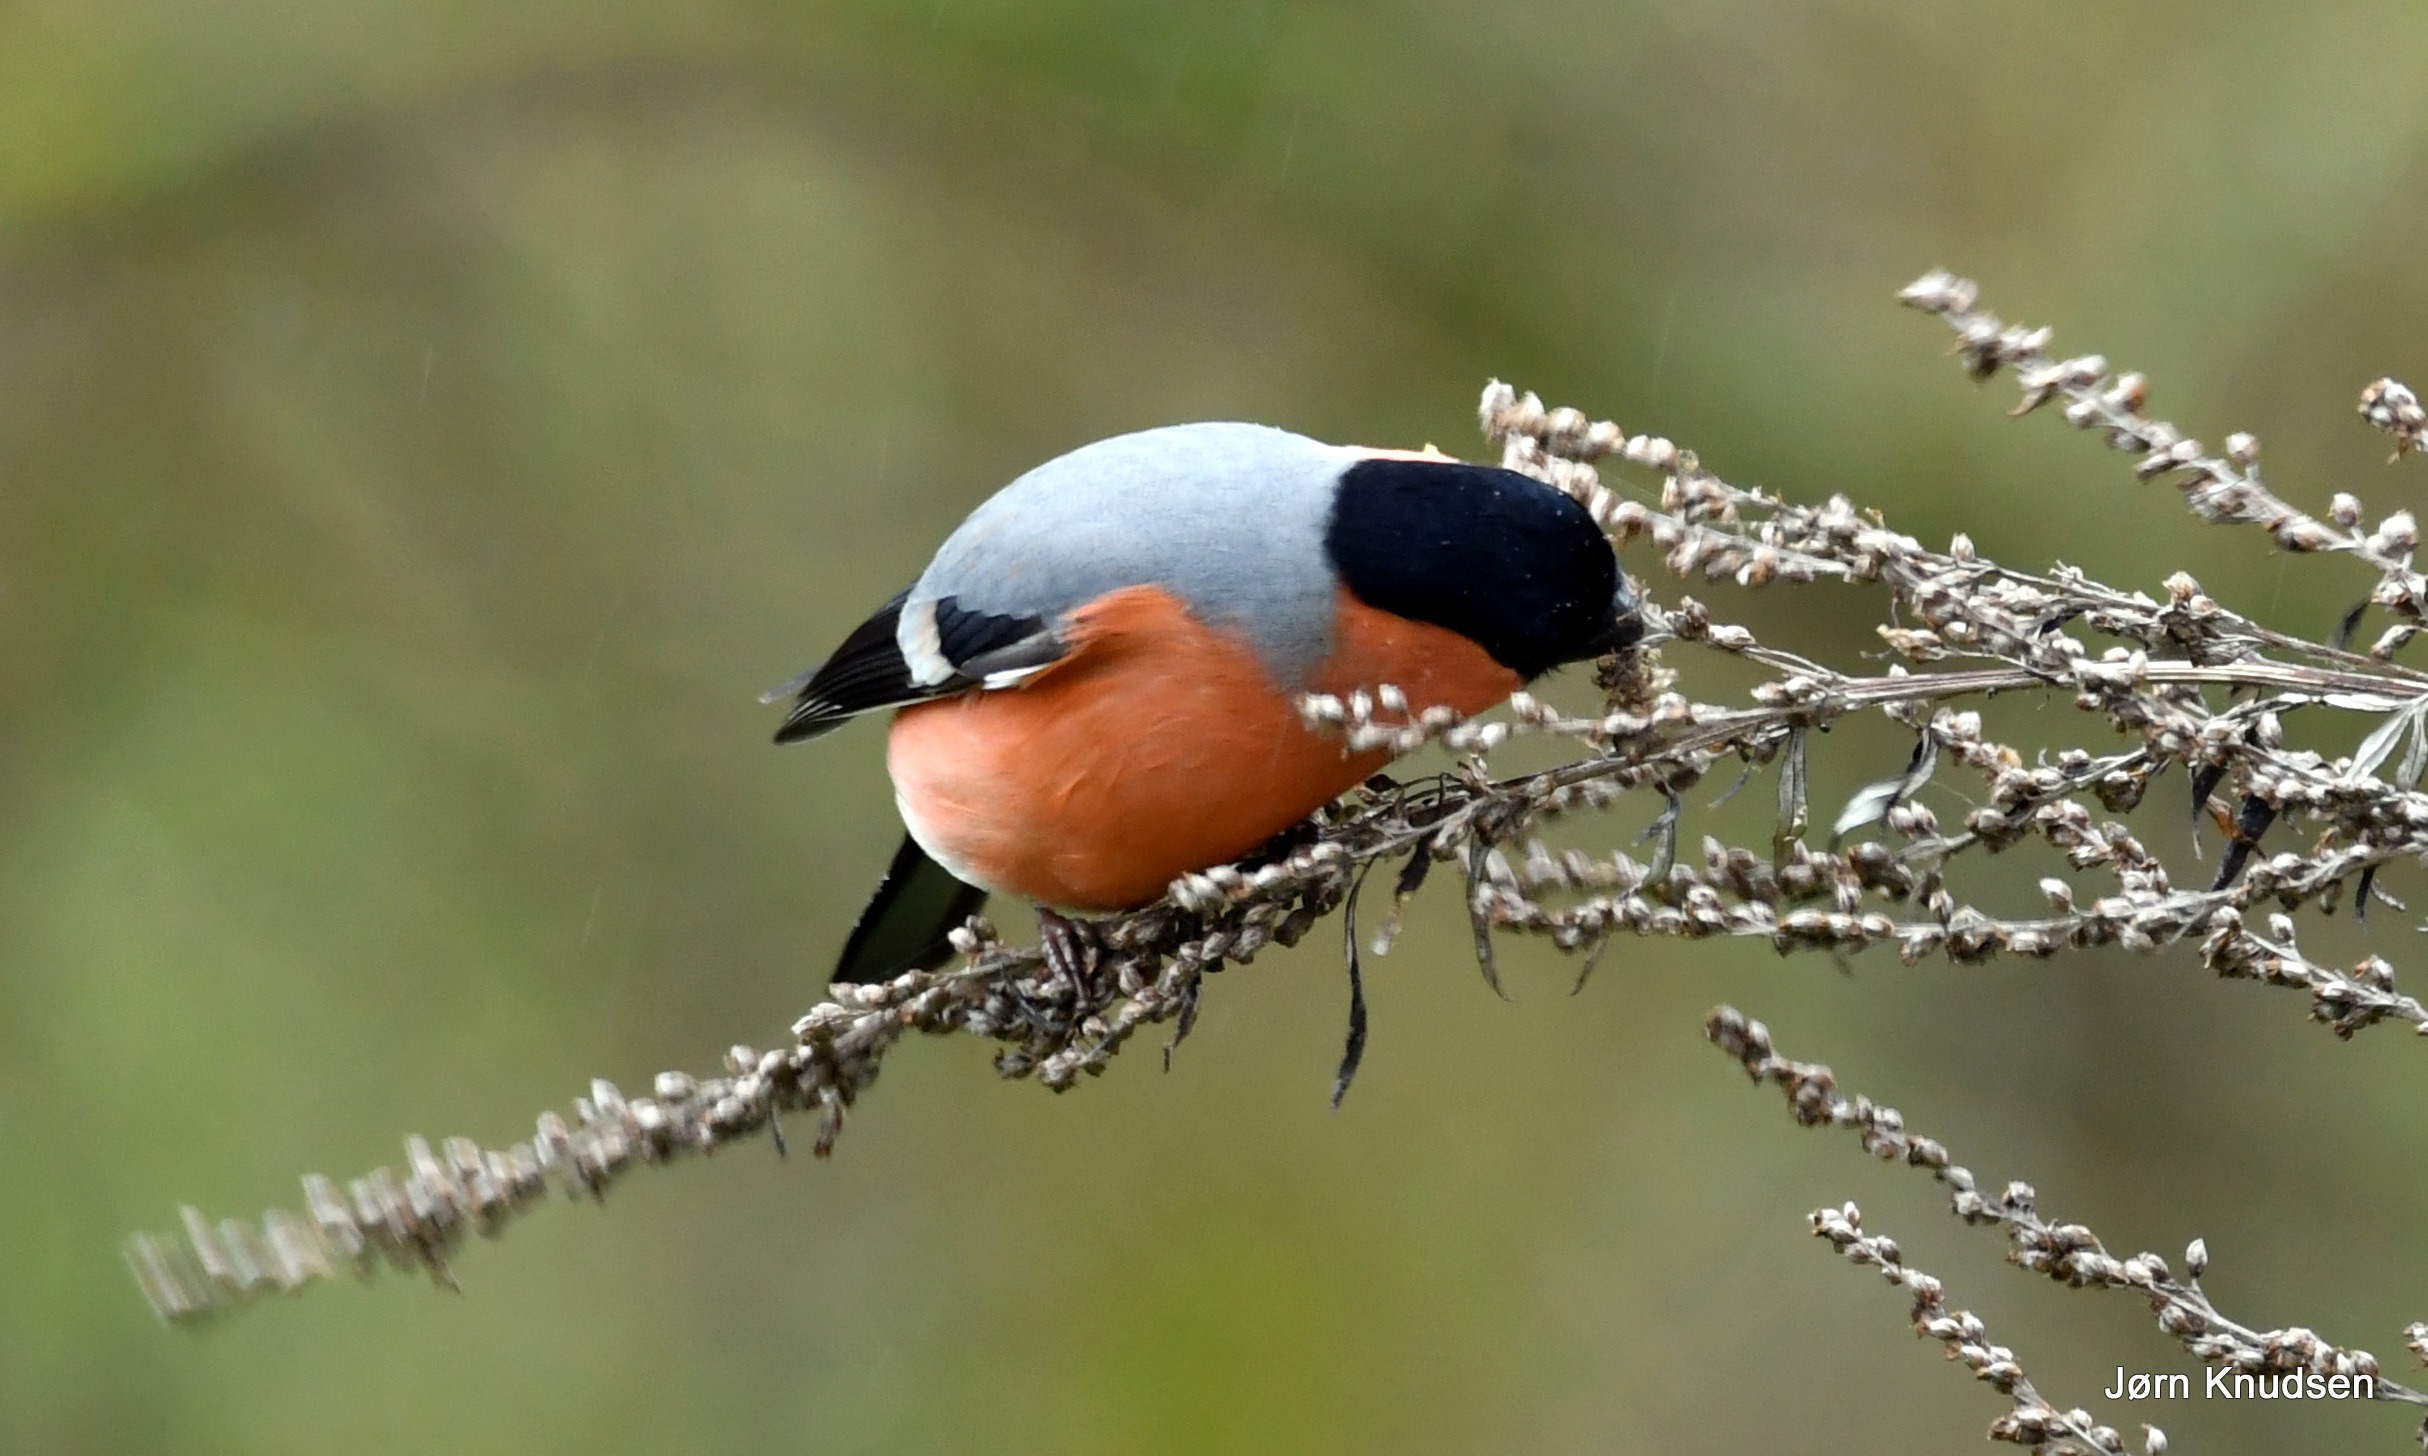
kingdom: Animalia
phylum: Chordata
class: Aves
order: Passeriformes
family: Fringillidae
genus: Pyrrhula
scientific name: Pyrrhula pyrrhula
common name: Dompap
